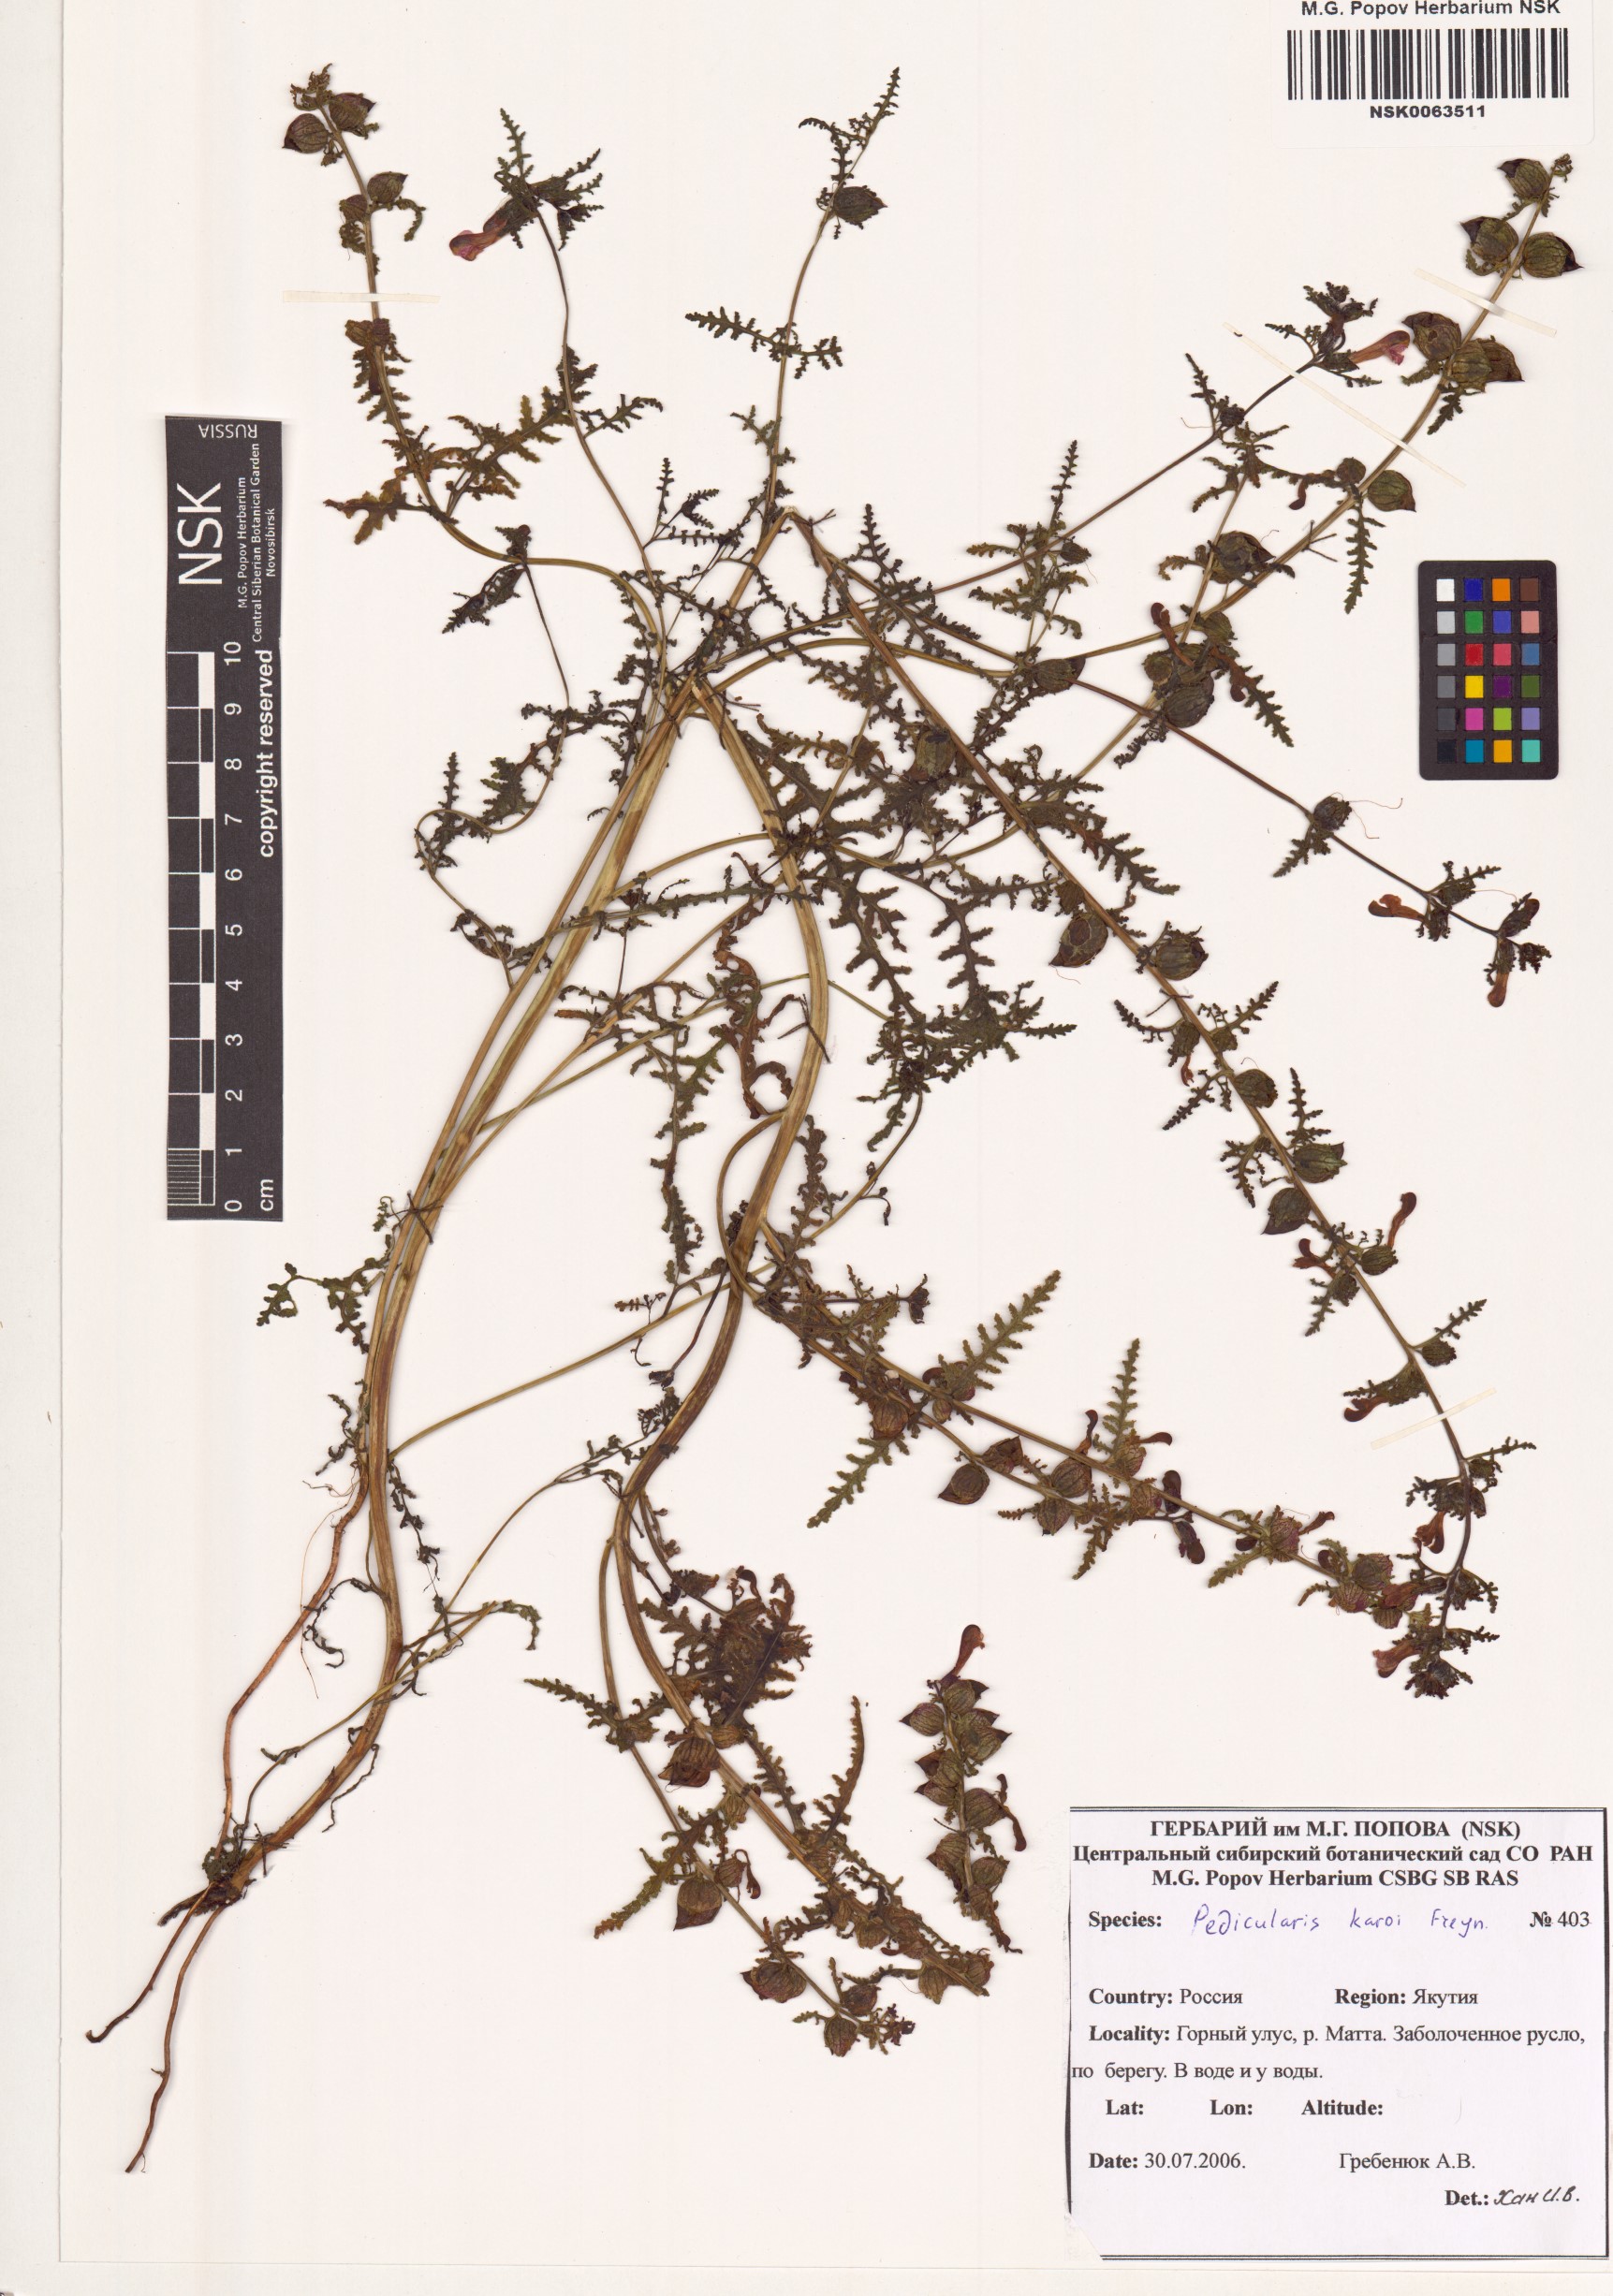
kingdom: Plantae
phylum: Tracheophyta
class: Magnoliopsida
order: Lamiales
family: Orobanchaceae
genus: Pedicularis
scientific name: Pedicularis karoi
